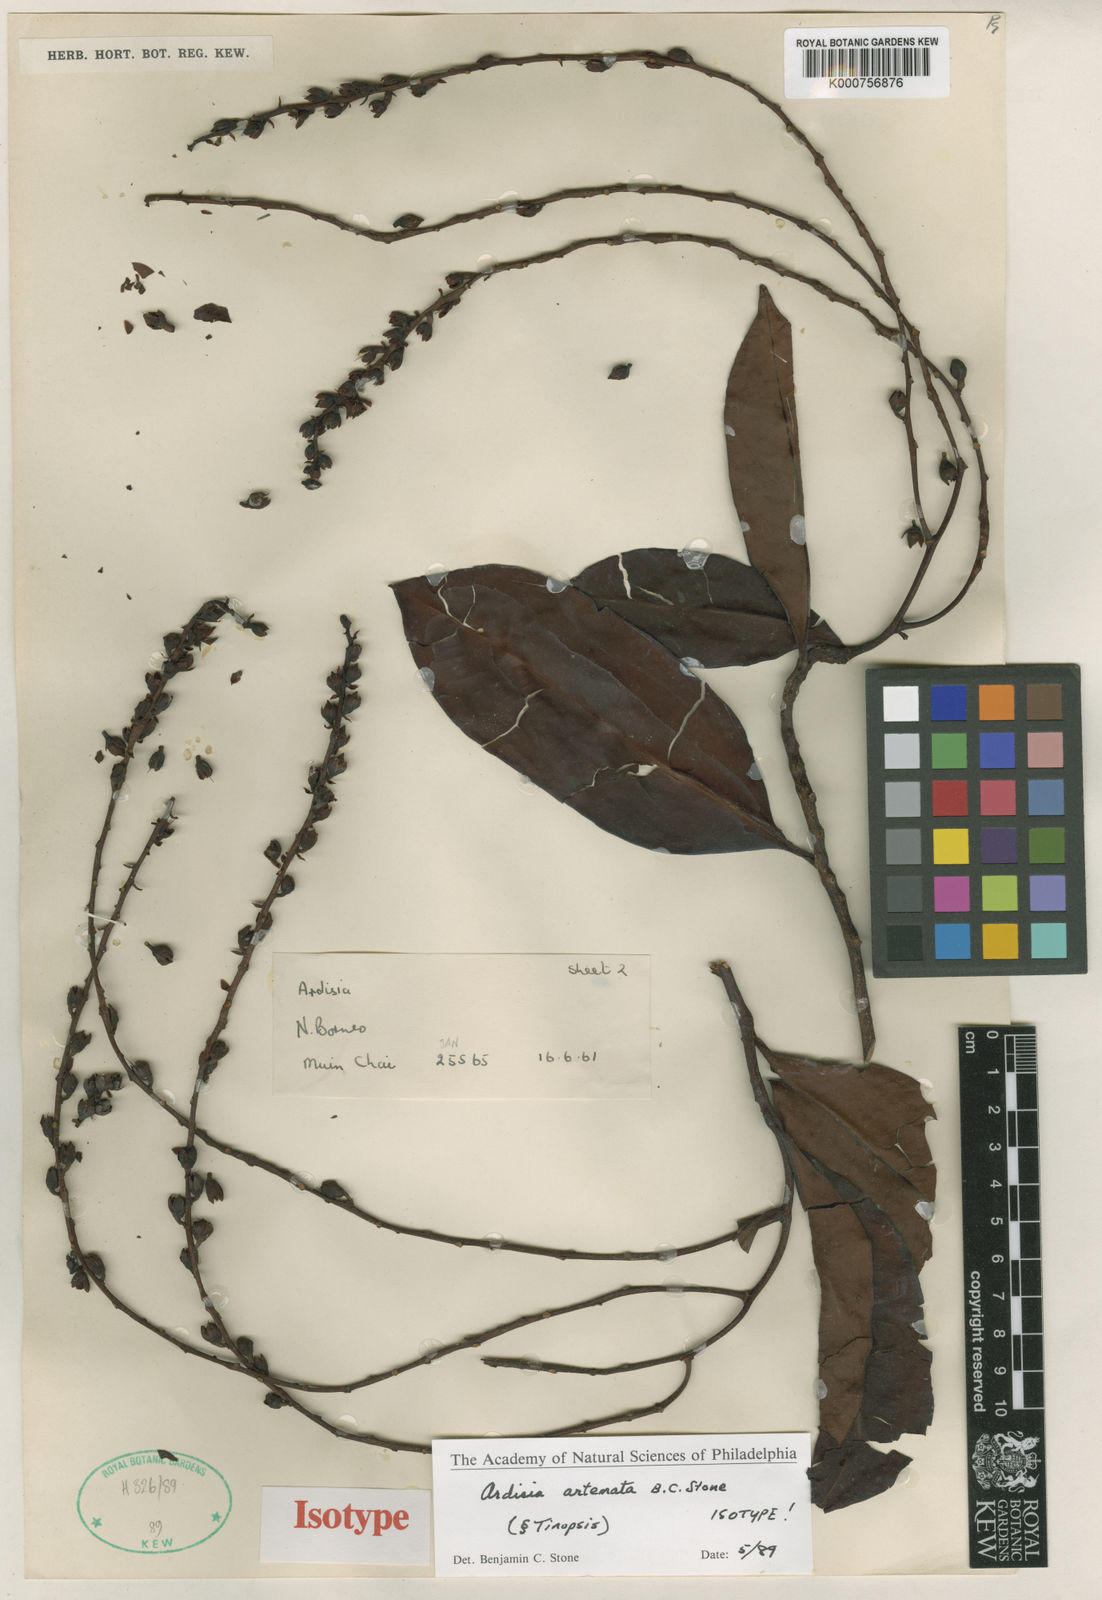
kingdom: Plantae
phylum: Tracheophyta
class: Magnoliopsida
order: Ericales
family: Primulaceae
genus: Ardisia
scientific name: Ardisia
